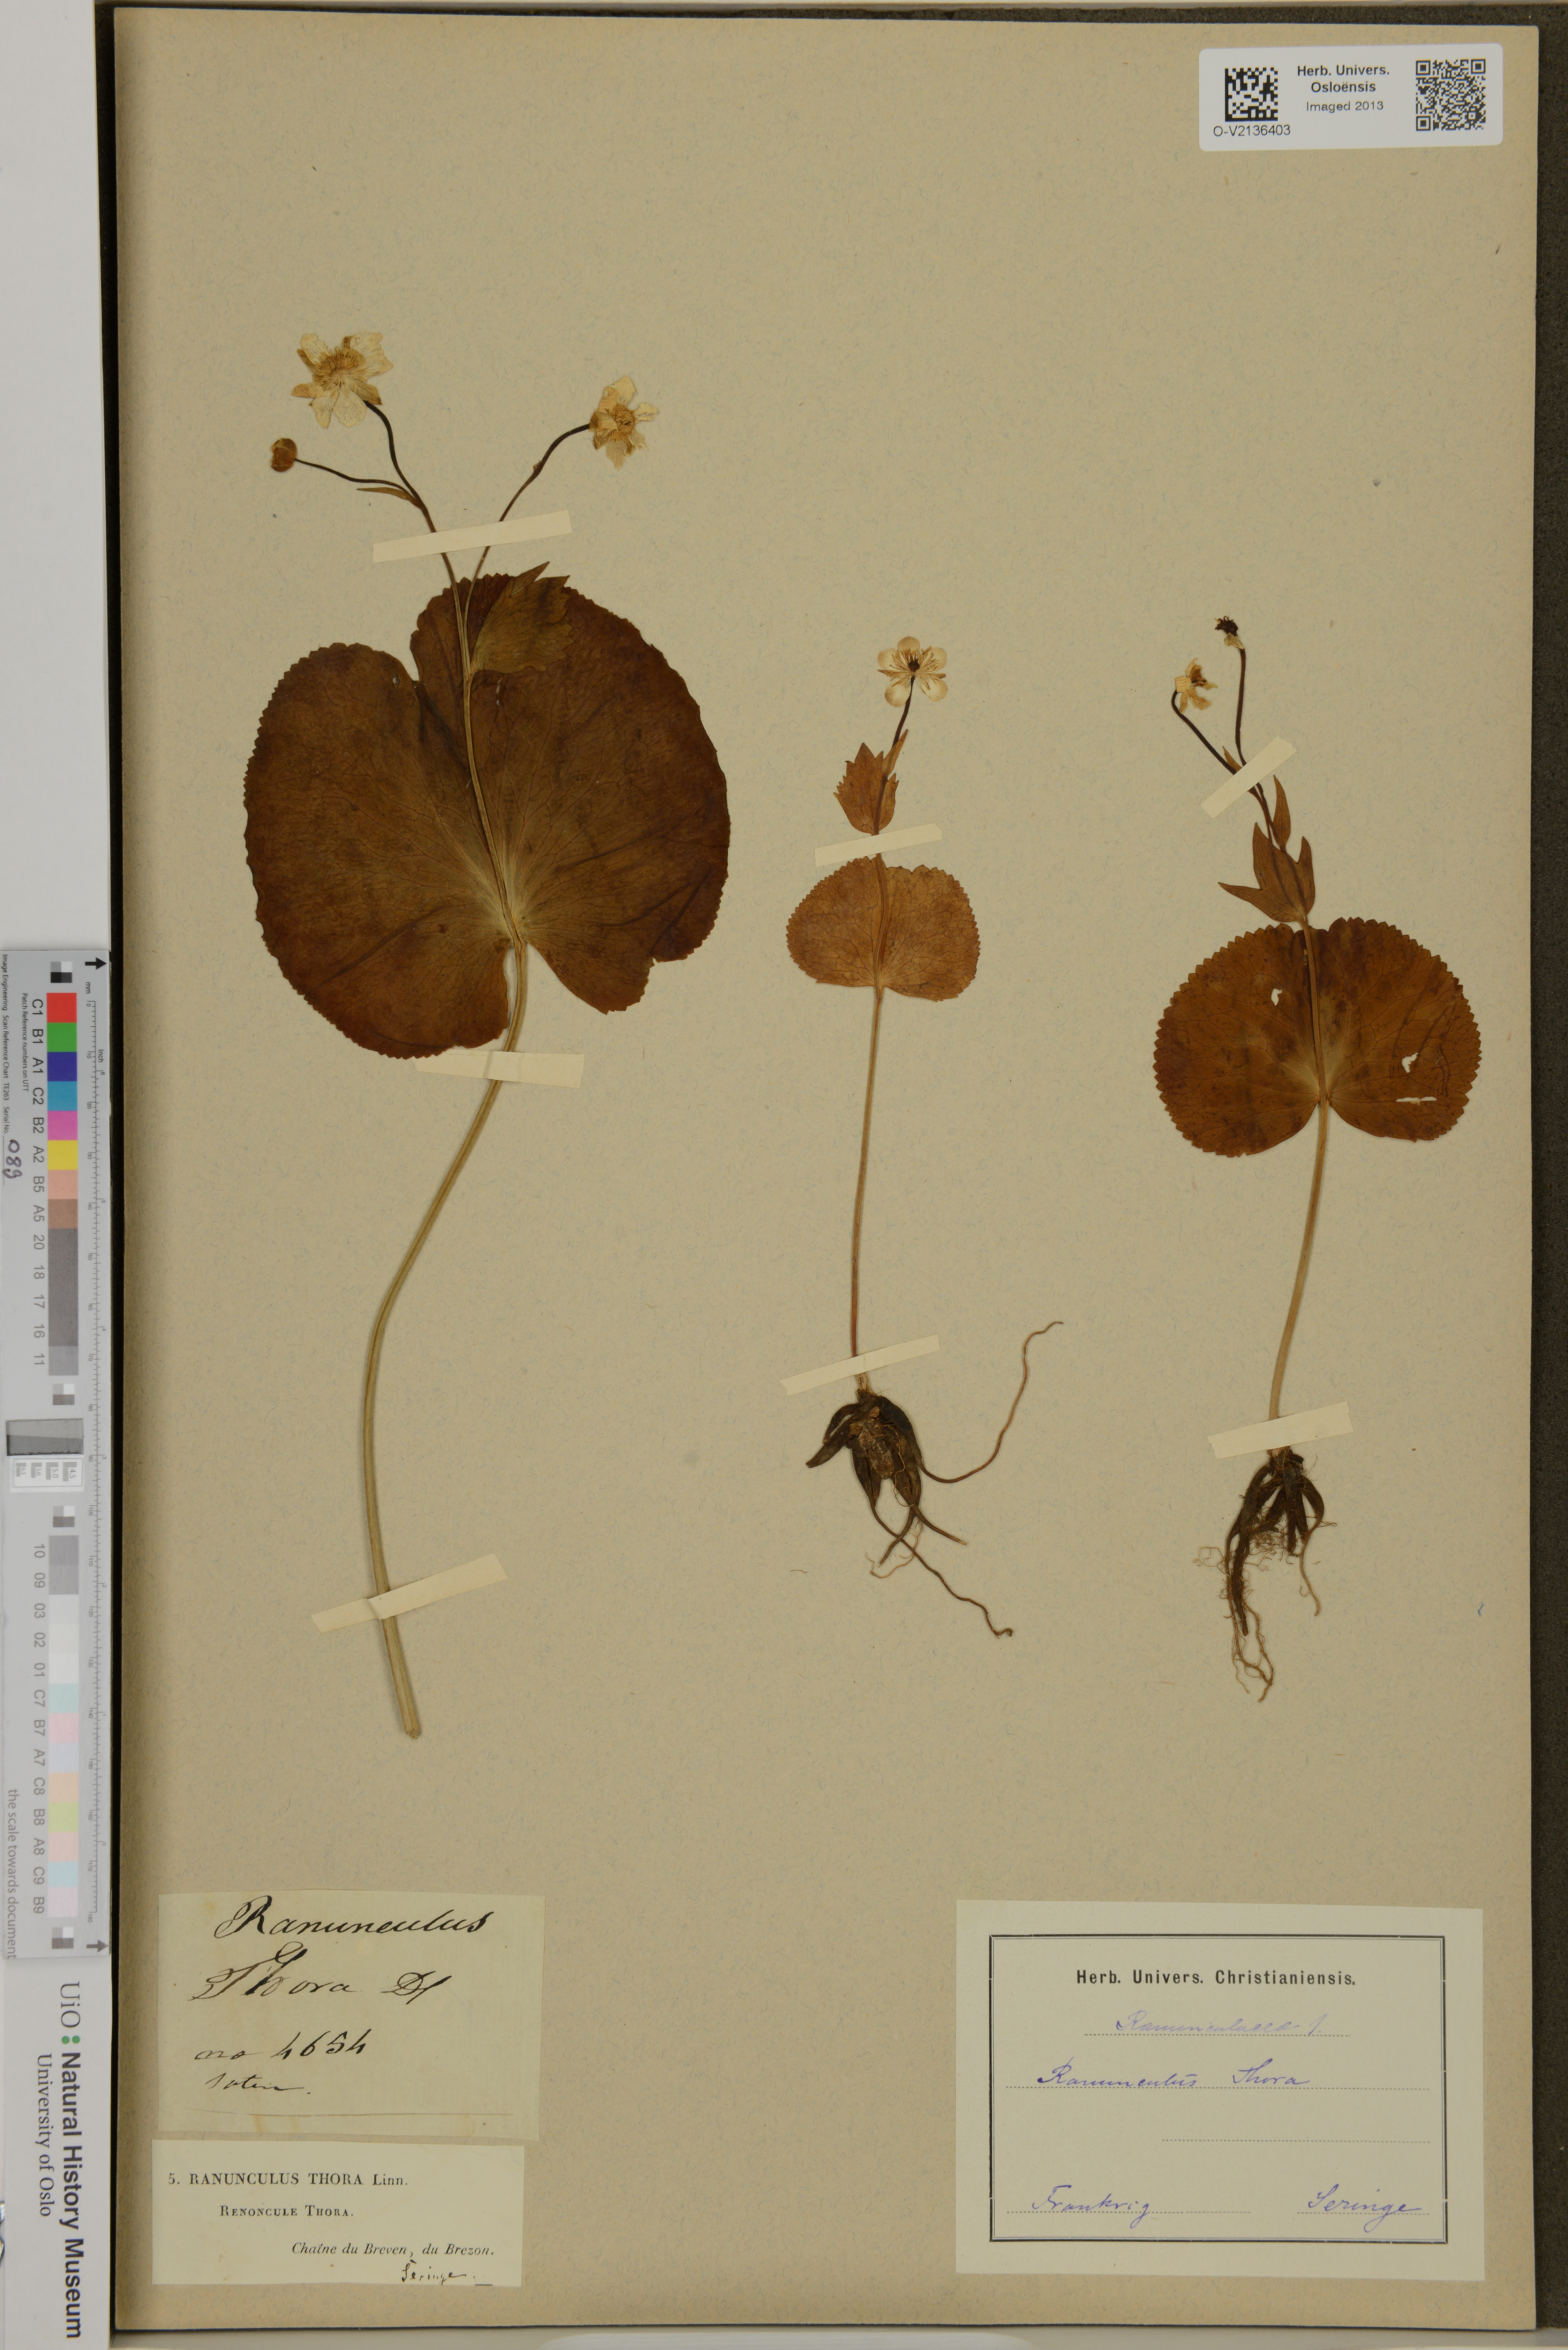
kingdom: Plantae
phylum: Tracheophyta
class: Magnoliopsida
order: Ranunculales
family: Ranunculaceae
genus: Ranunculus
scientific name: Ranunculus thora
